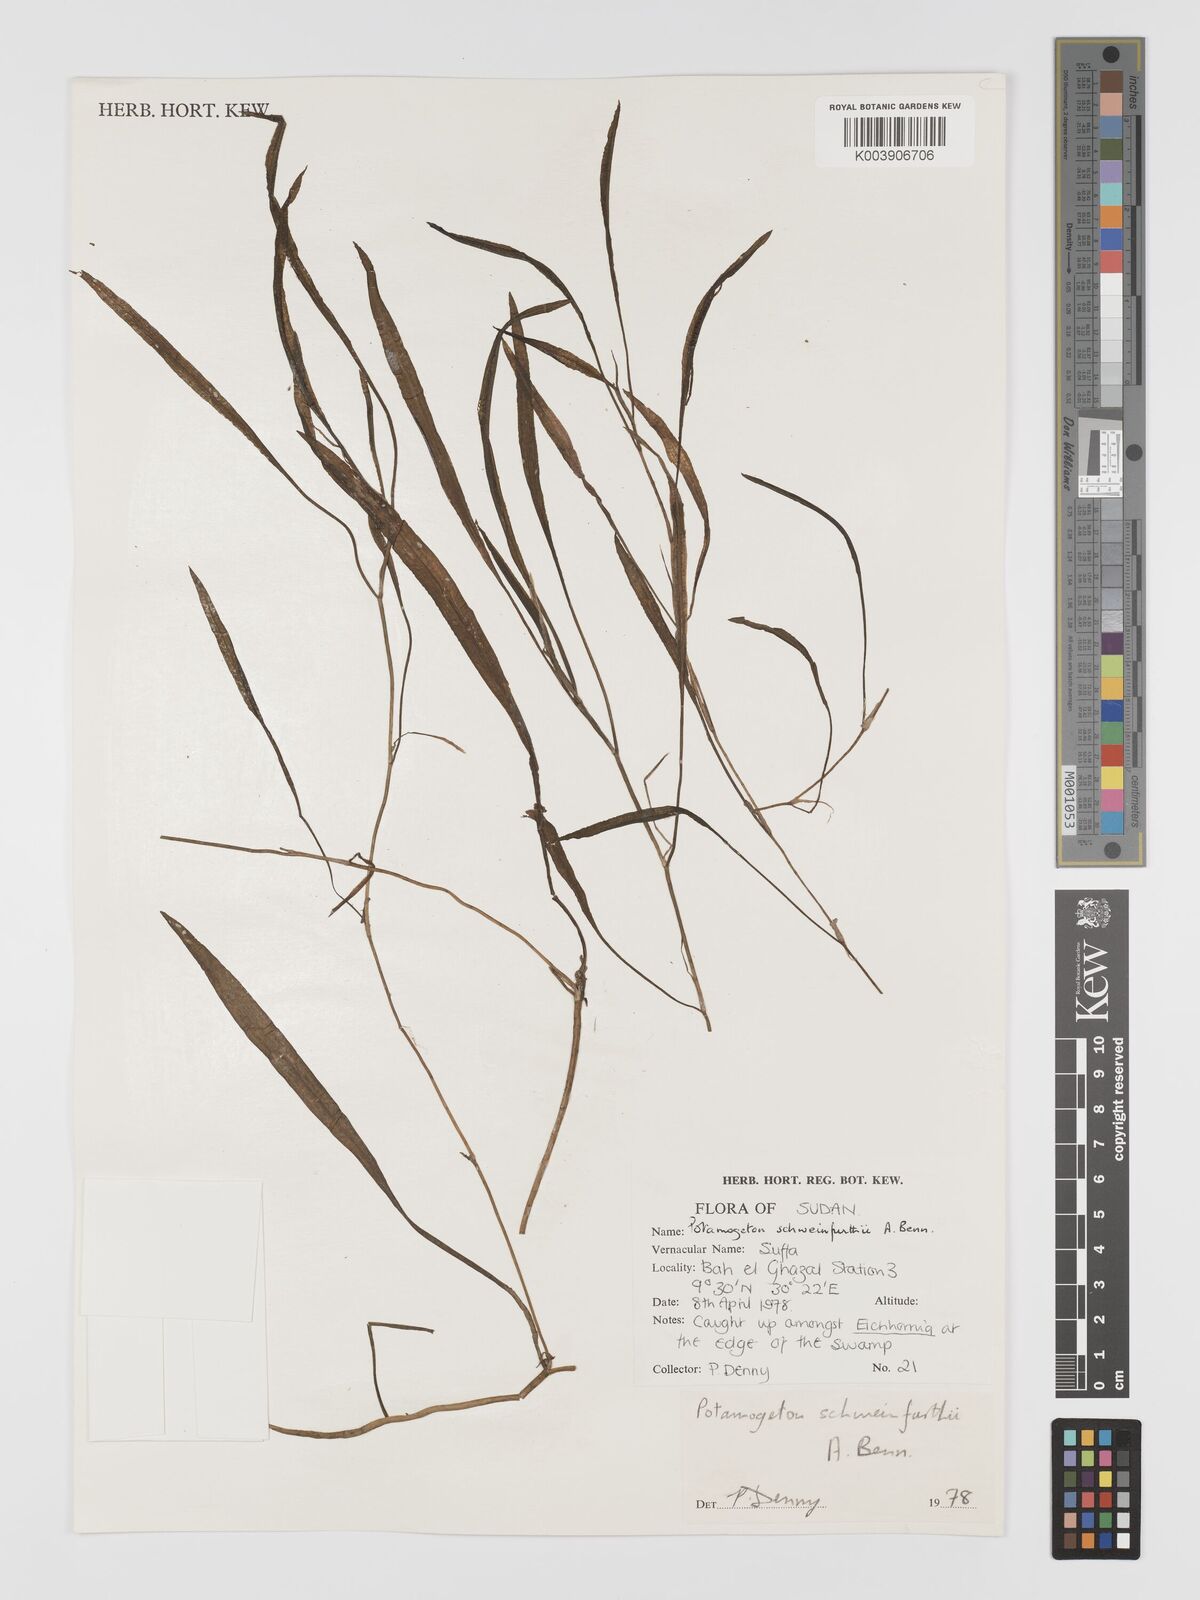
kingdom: Plantae
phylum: Tracheophyta
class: Liliopsida
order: Alismatales
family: Potamogetonaceae
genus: Potamogeton
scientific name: Potamogeton schweinfurthii
